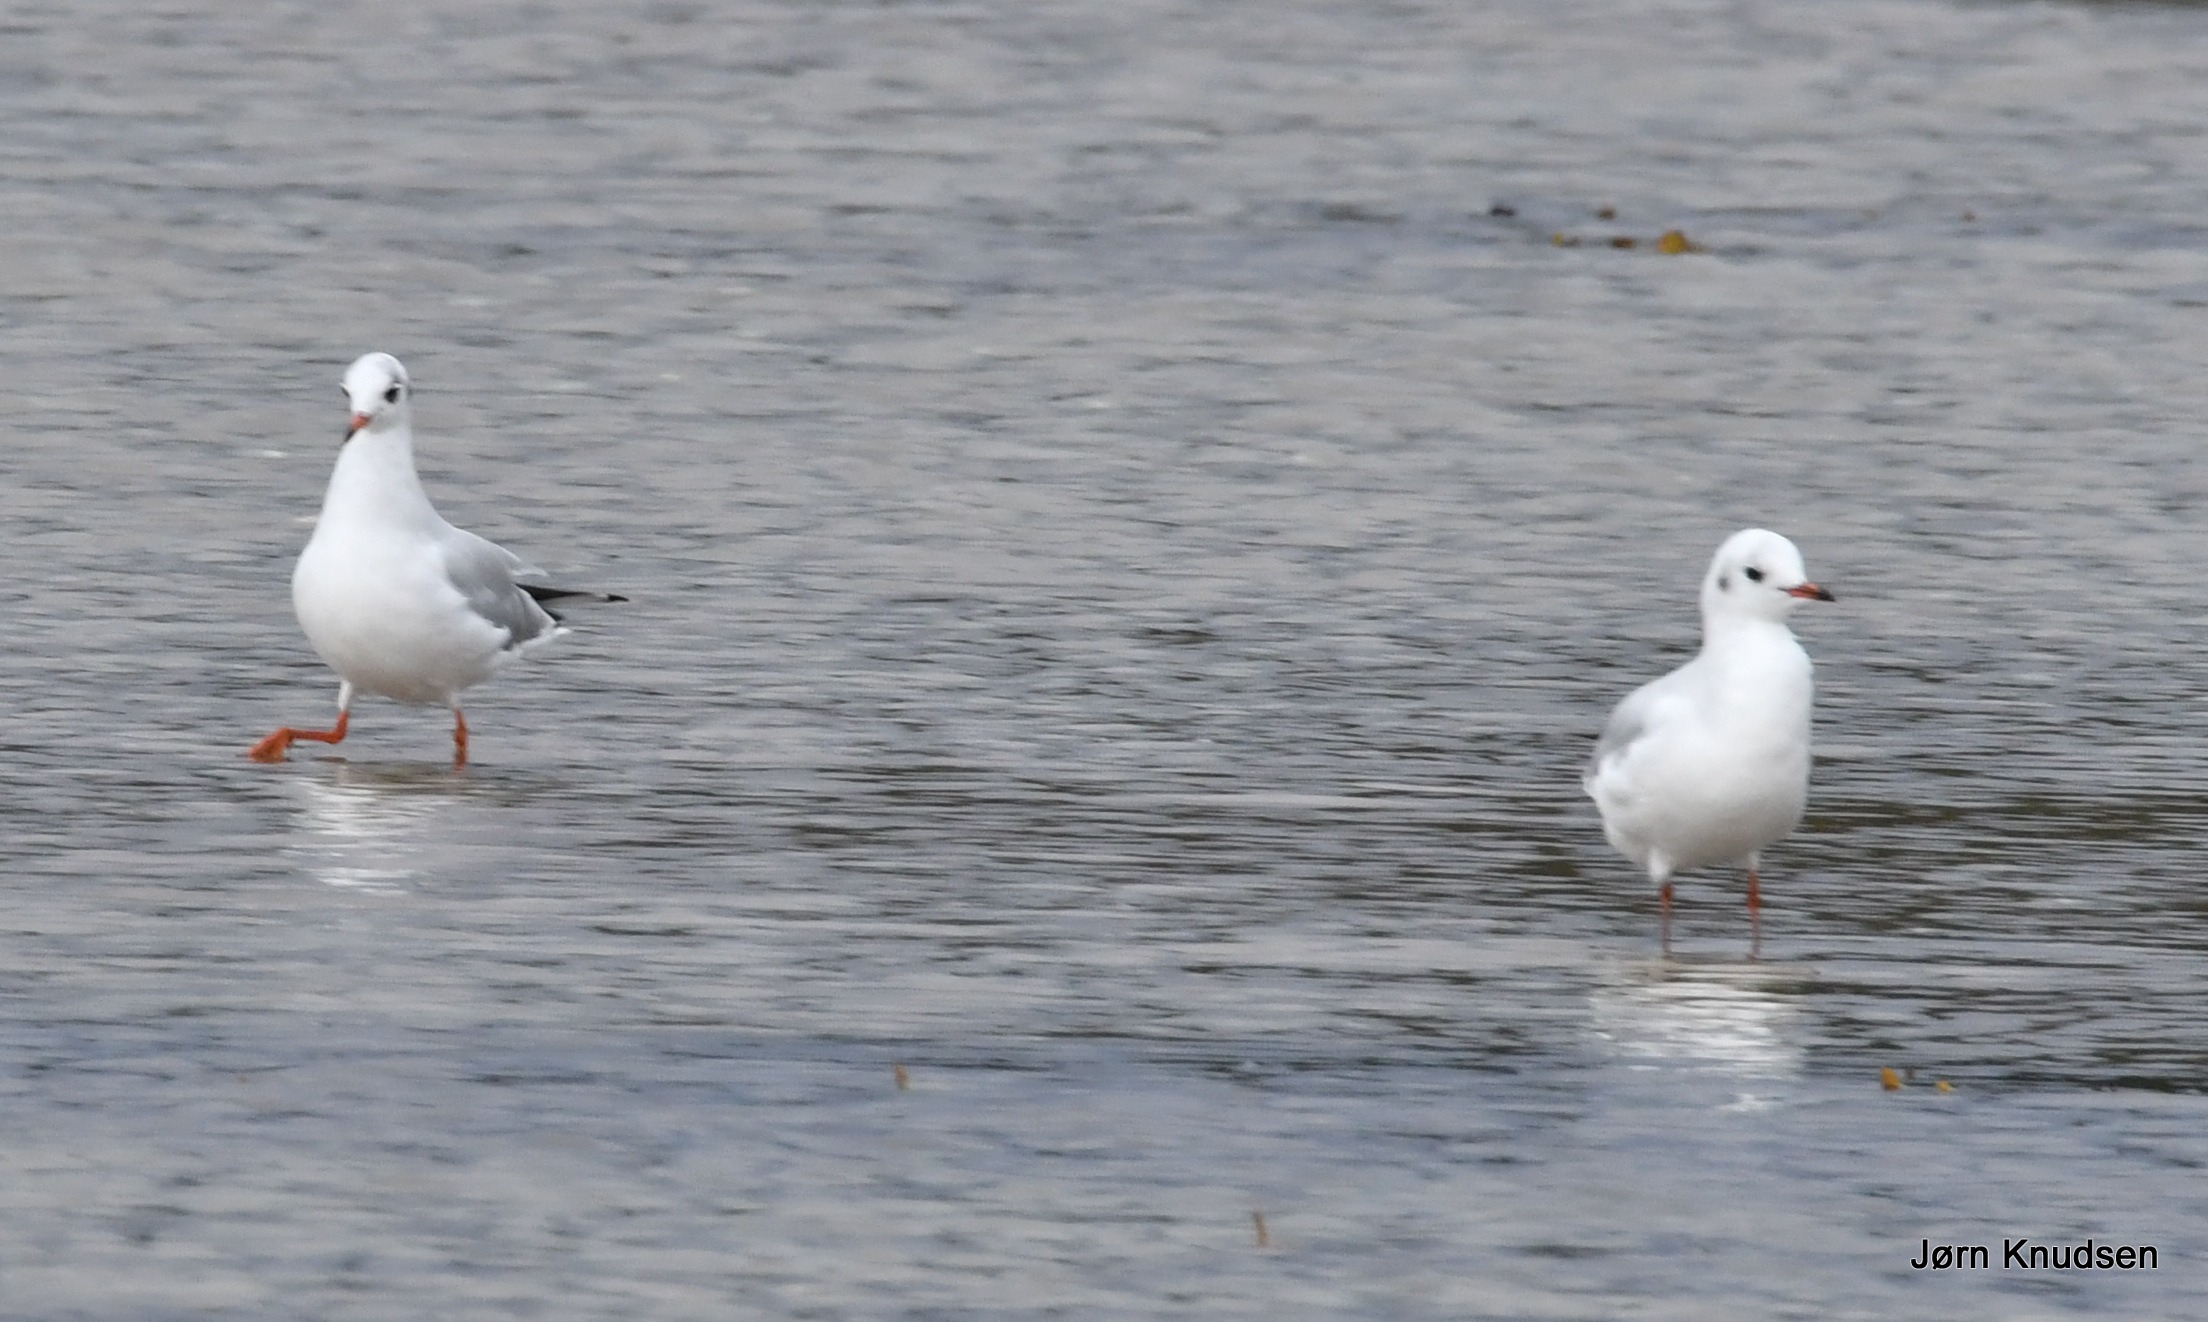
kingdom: Animalia
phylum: Chordata
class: Aves
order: Charadriiformes
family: Laridae
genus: Chroicocephalus
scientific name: Chroicocephalus ridibundus
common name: Hættemåge
